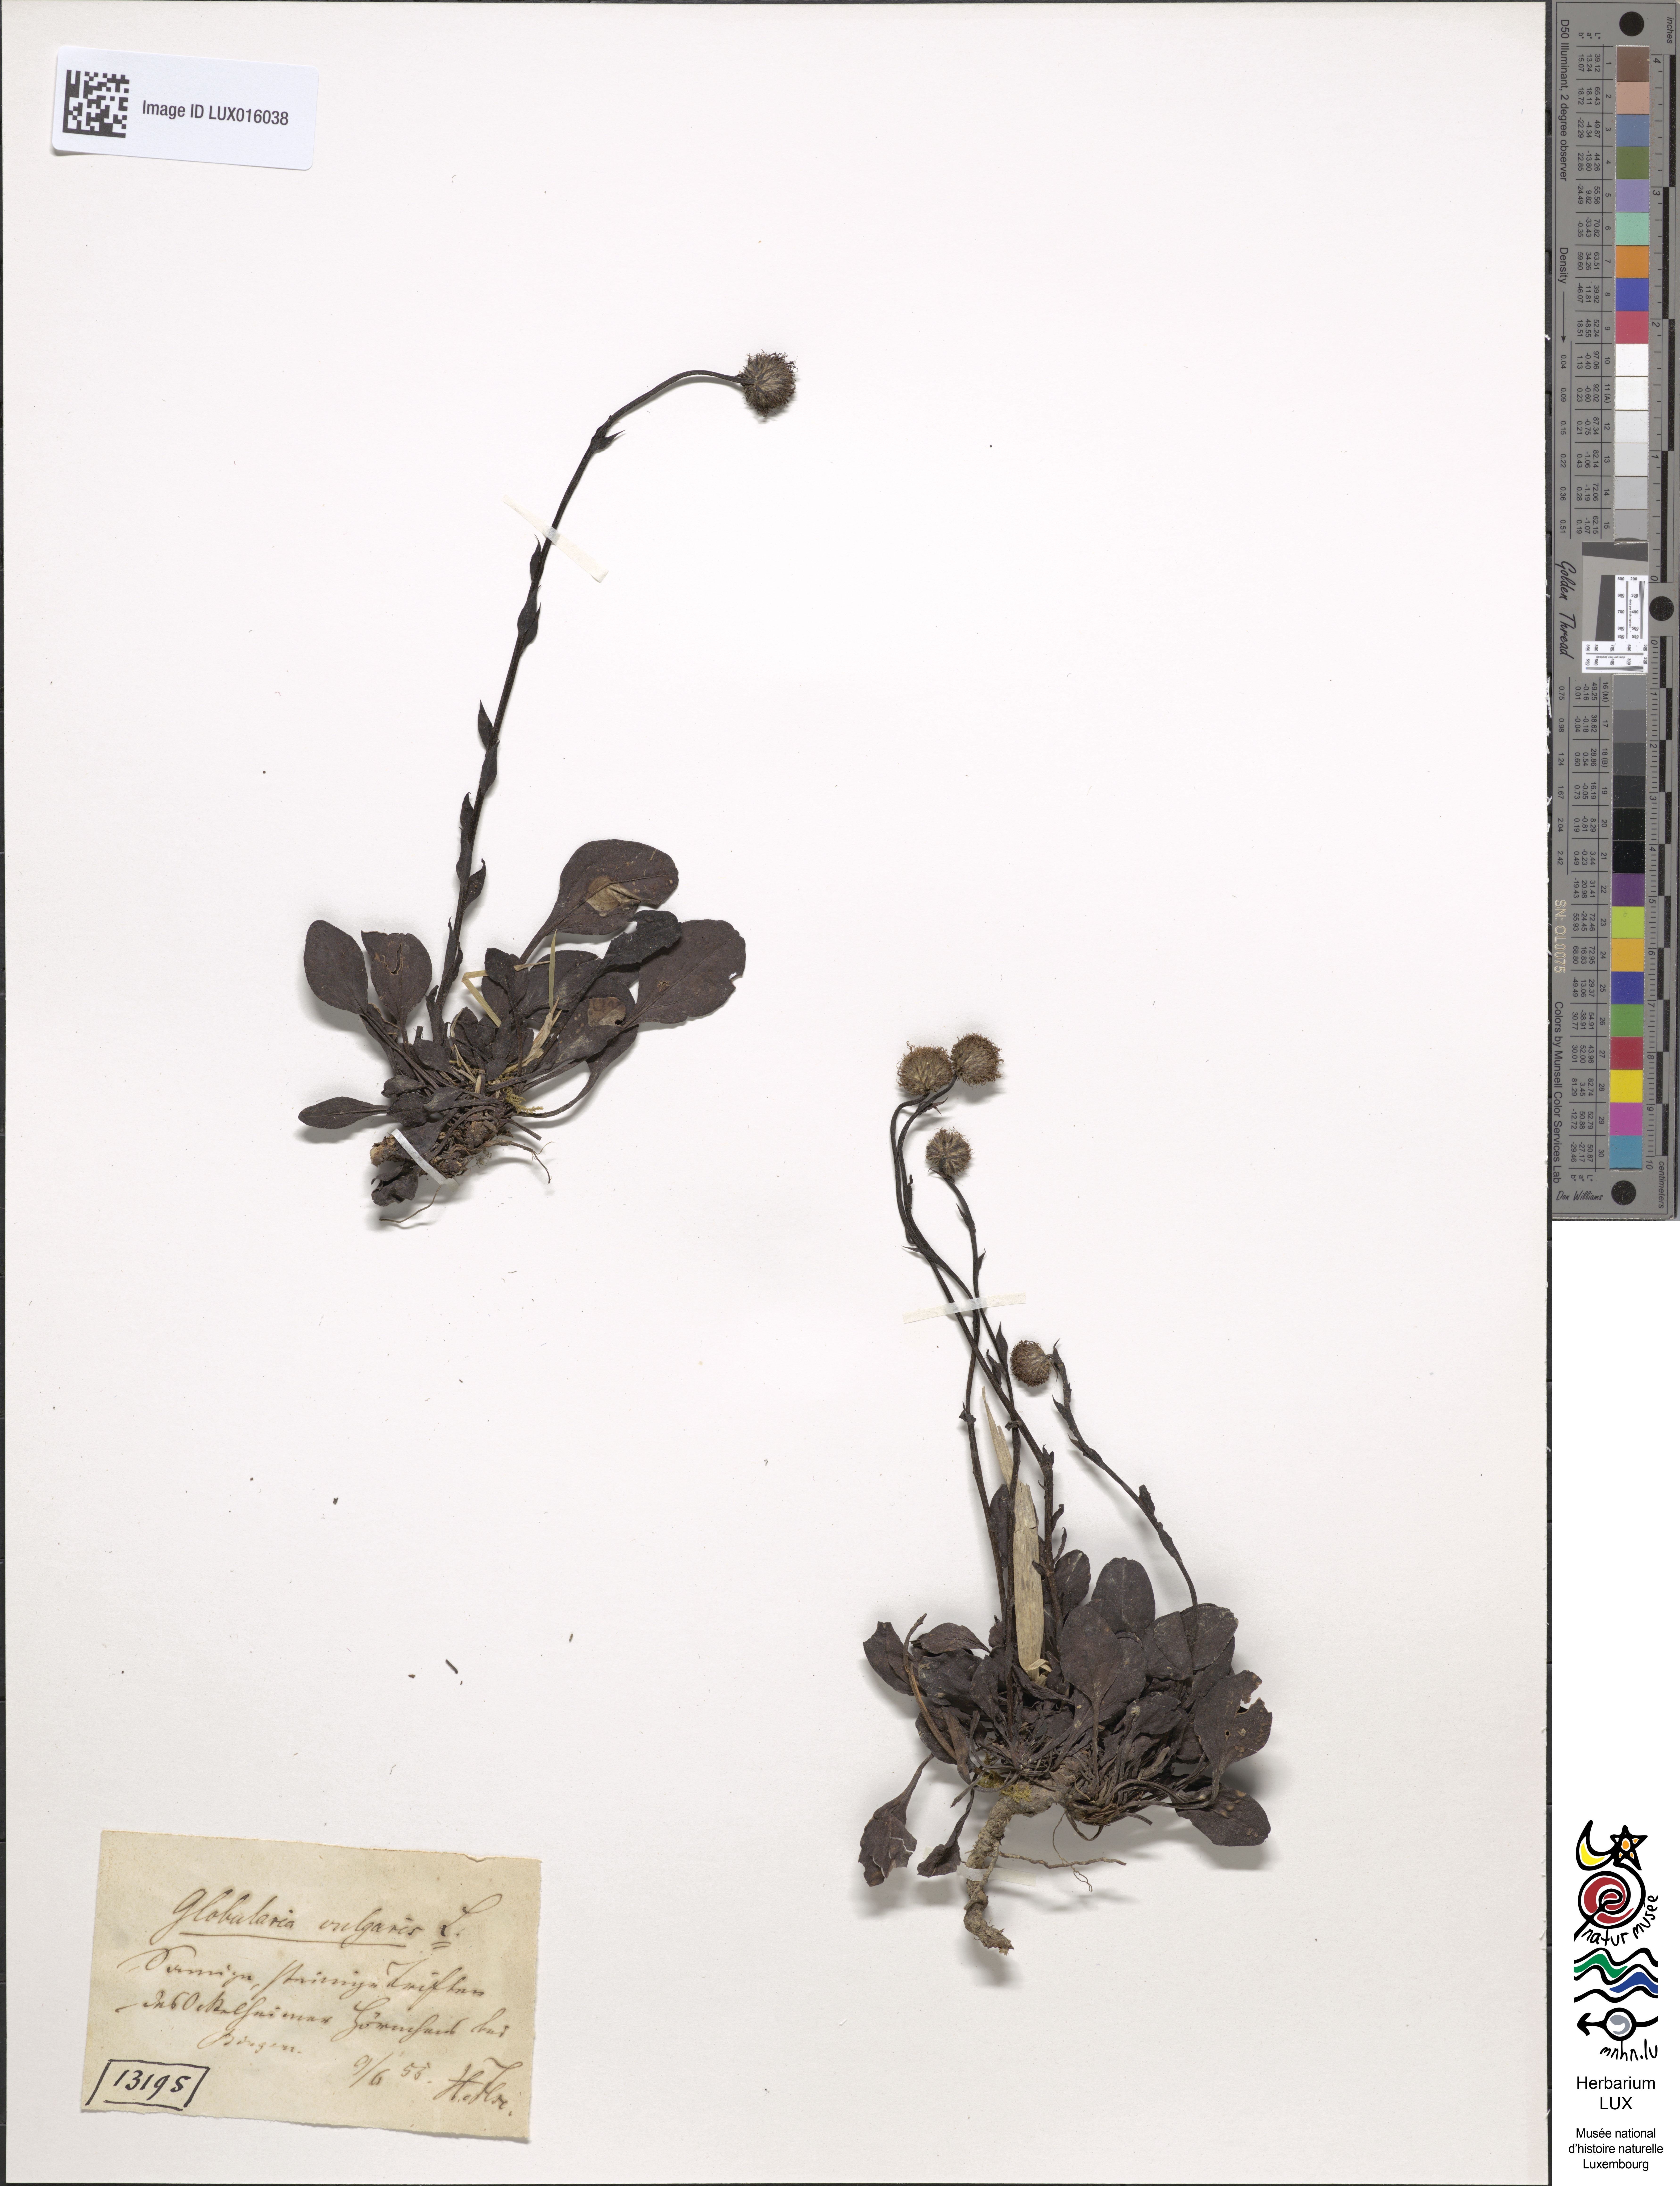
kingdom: Plantae
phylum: Tracheophyta
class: Magnoliopsida
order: Lamiales
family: Plantaginaceae
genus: Globularia
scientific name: Globularia bisnagarica
